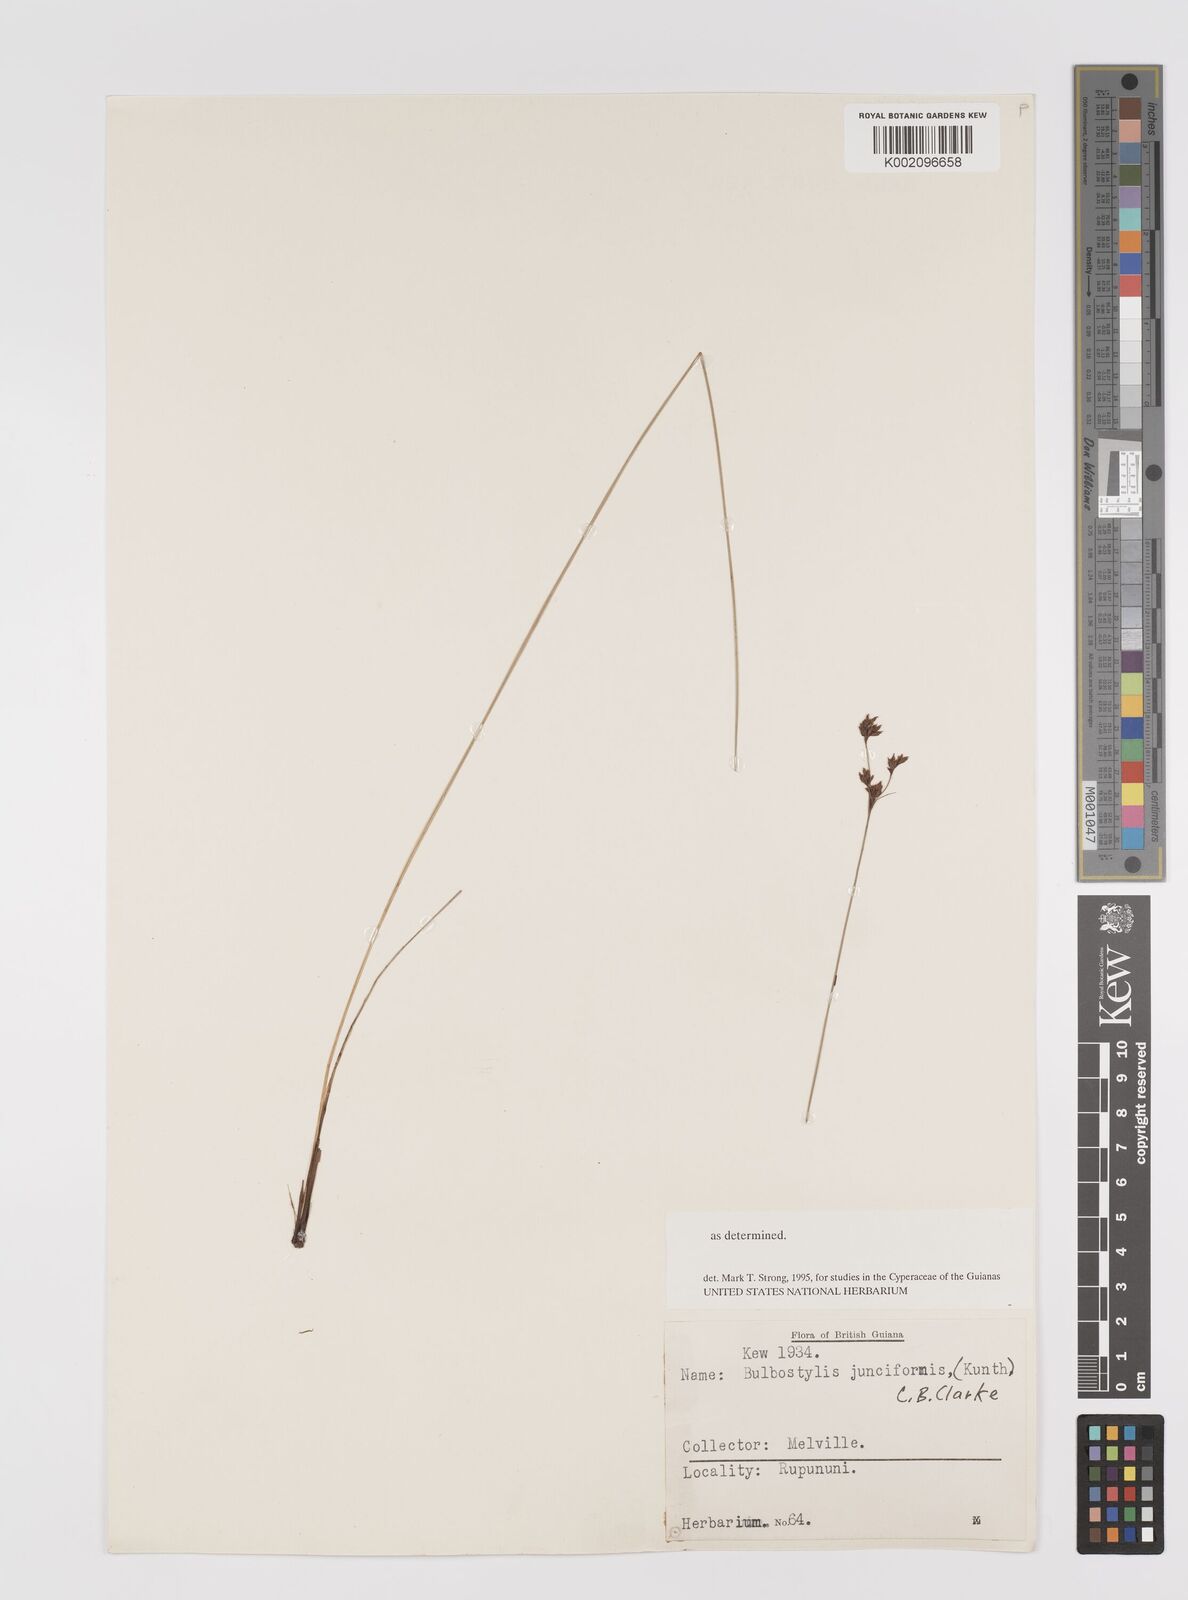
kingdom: Plantae
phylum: Tracheophyta
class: Liliopsida
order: Poales
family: Cyperaceae
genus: Bulbostylis
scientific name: Bulbostylis junciformis
